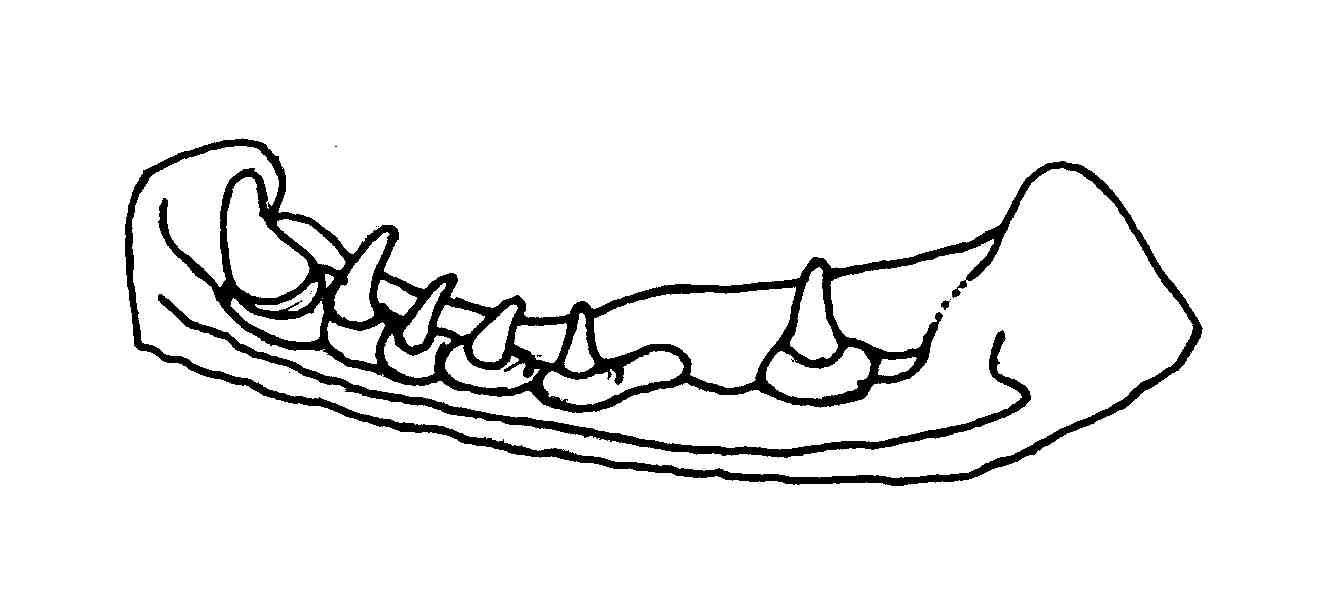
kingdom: Animalia
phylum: Chordata
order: Perciformes
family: Gobiidae
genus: Sicyopterus
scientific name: Sicyopterus
